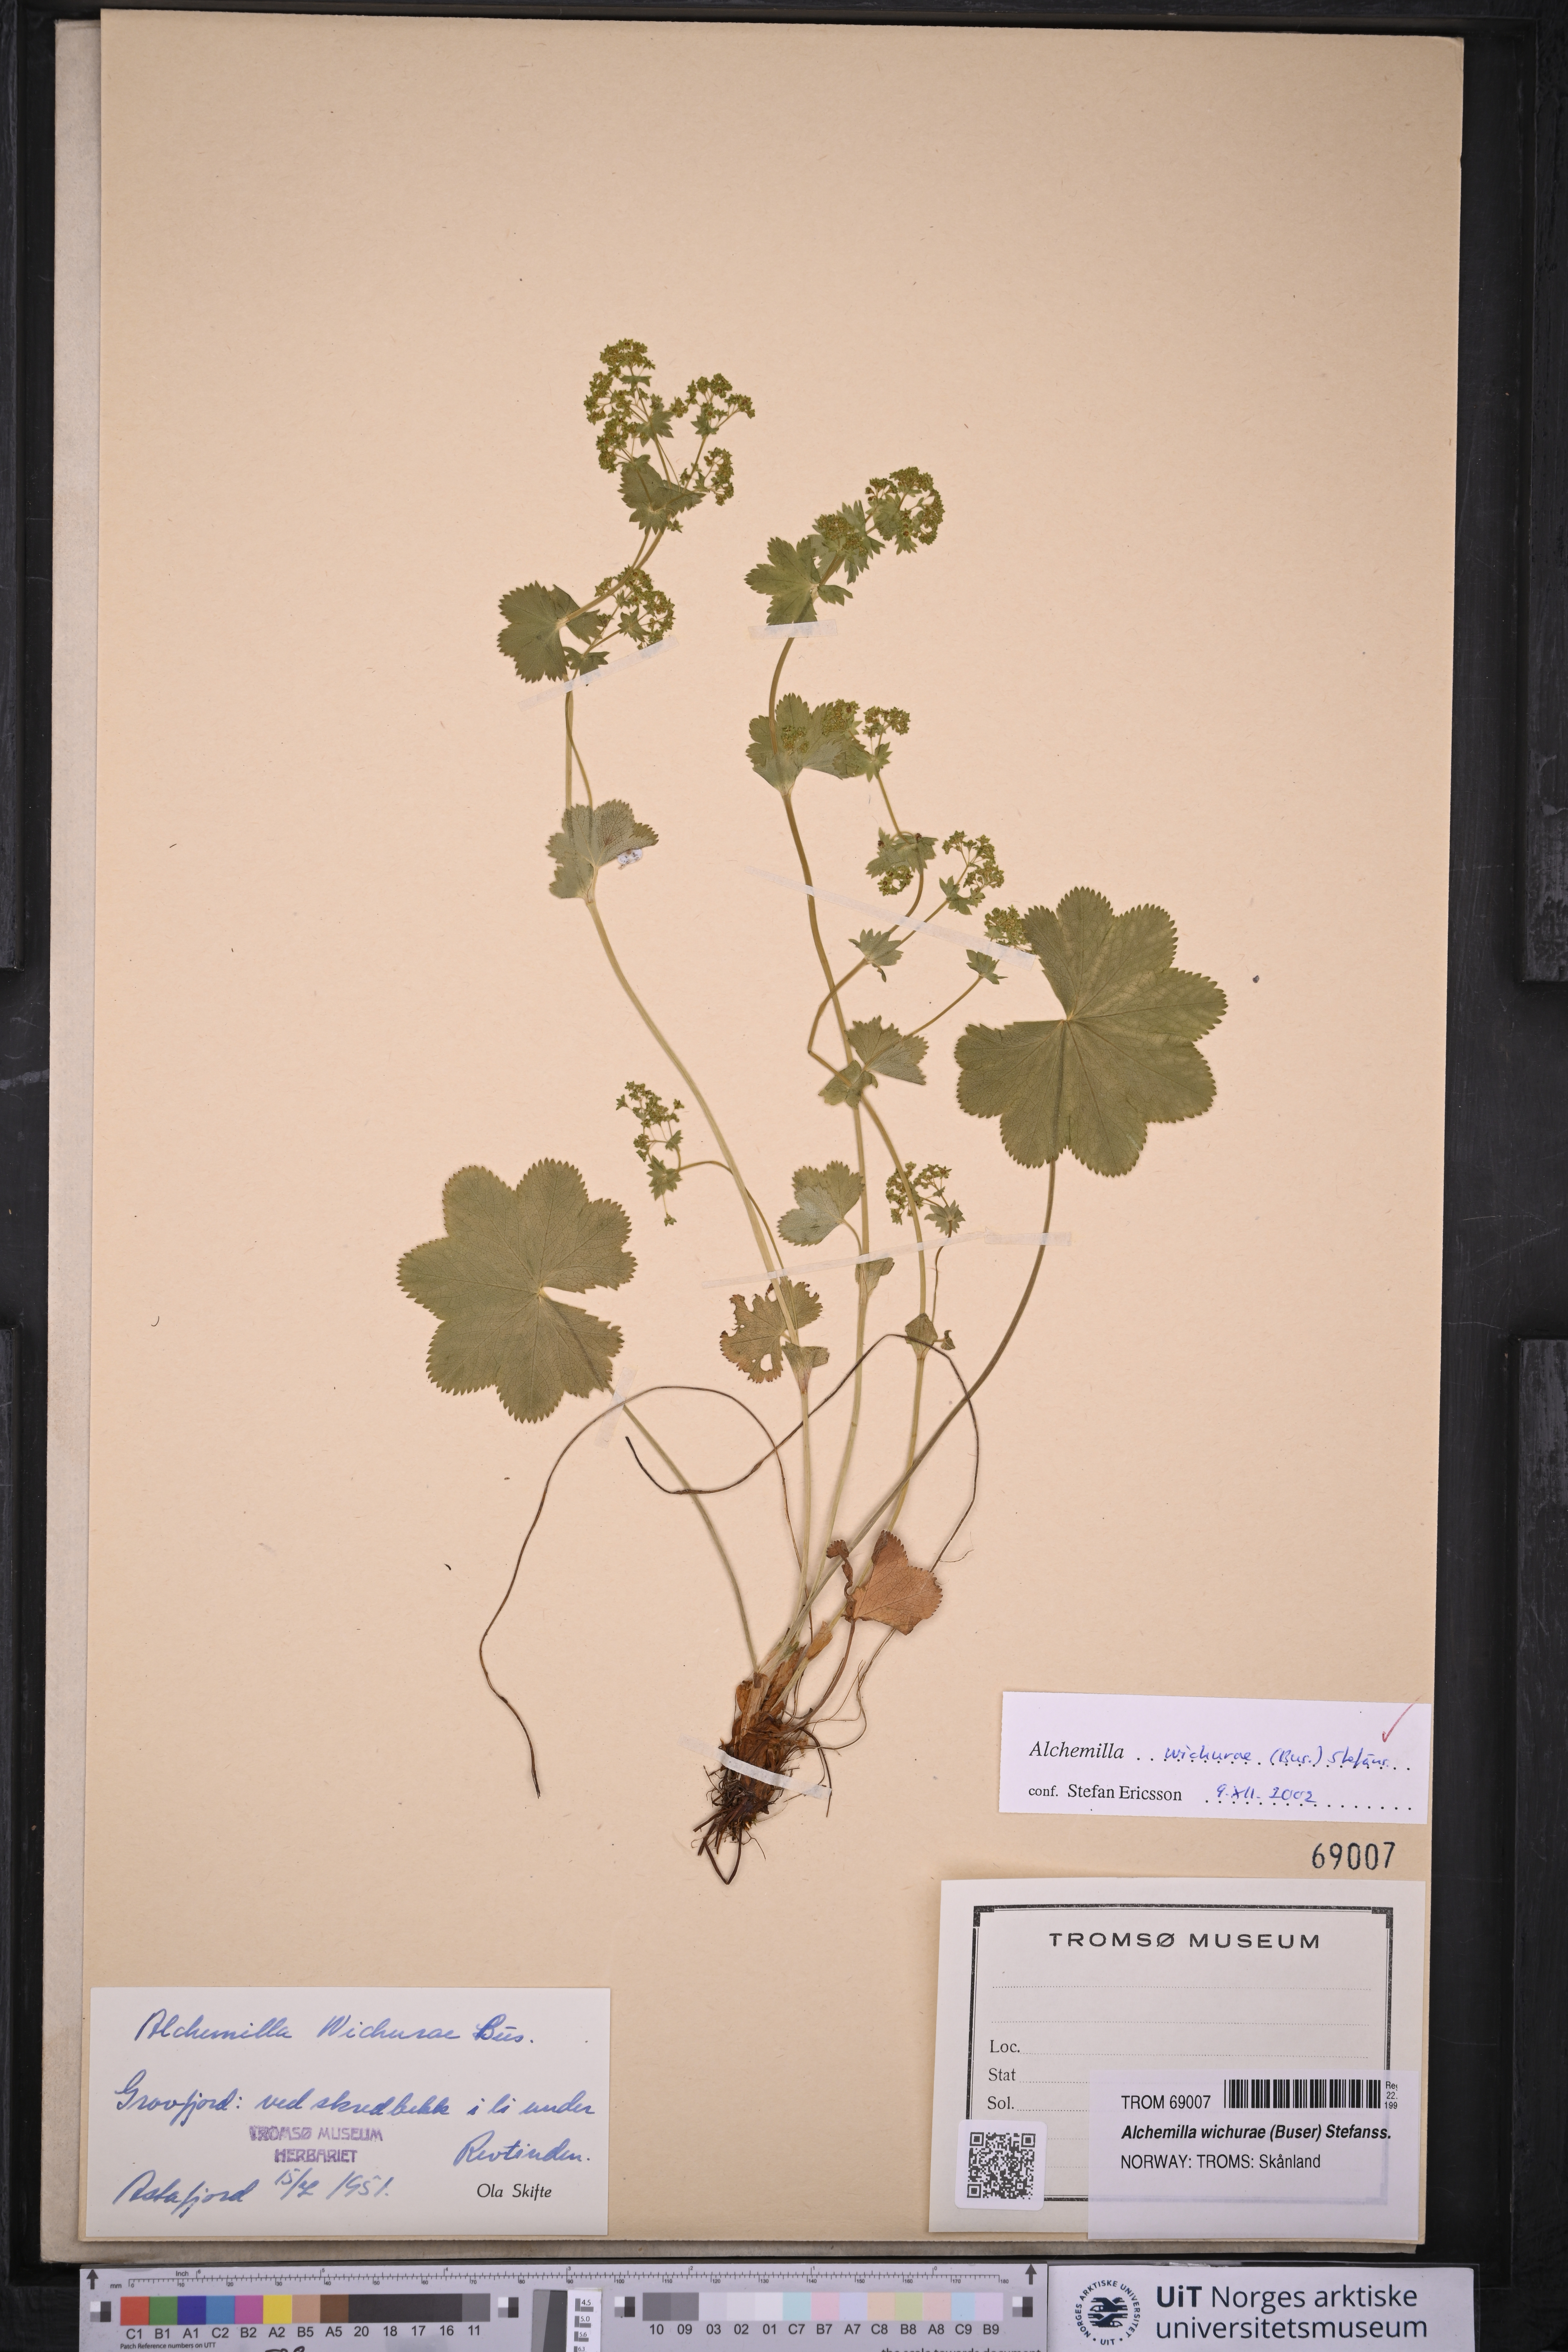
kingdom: Plantae
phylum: Tracheophyta
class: Magnoliopsida
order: Rosales
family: Rosaceae
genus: Alchemilla
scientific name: Alchemilla wichurae
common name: Rock lady's mantle
